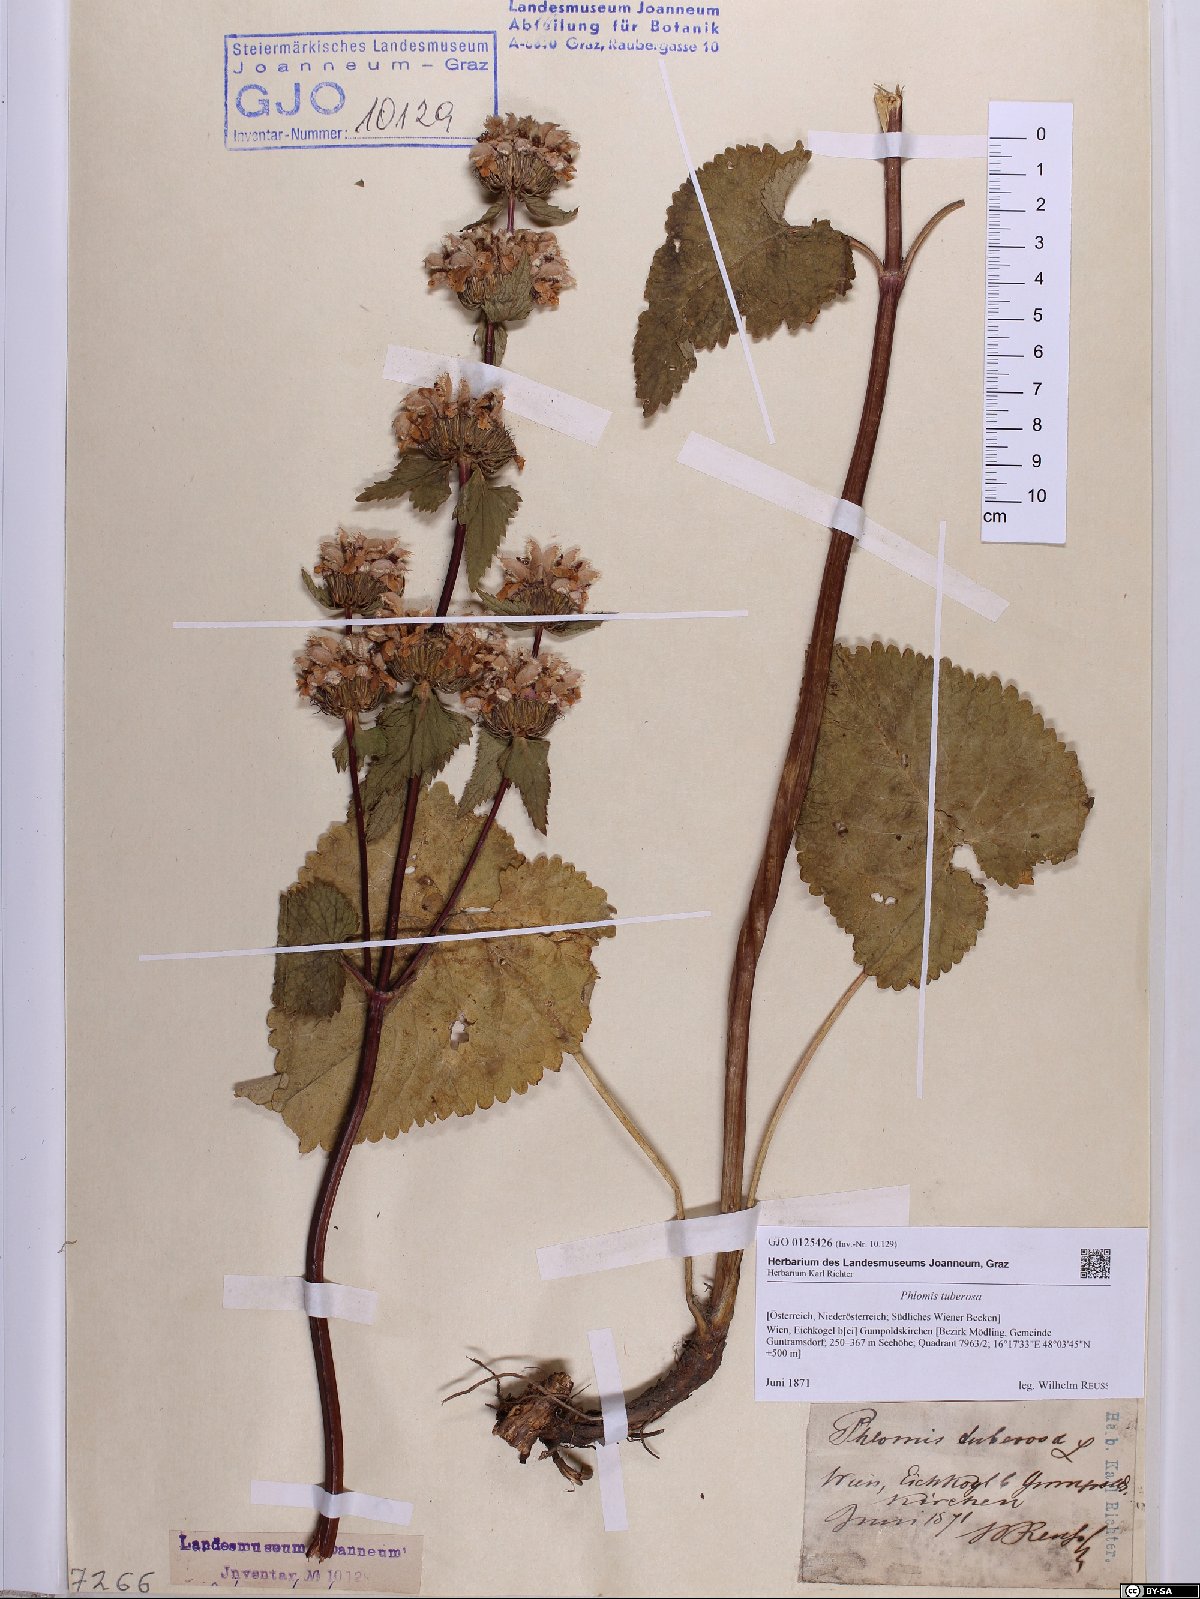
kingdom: Plantae
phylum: Tracheophyta
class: Magnoliopsida
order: Lamiales
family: Lamiaceae
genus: Phlomoides
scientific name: Phlomoides tuberosa
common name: Tuberous jerusalem sage
